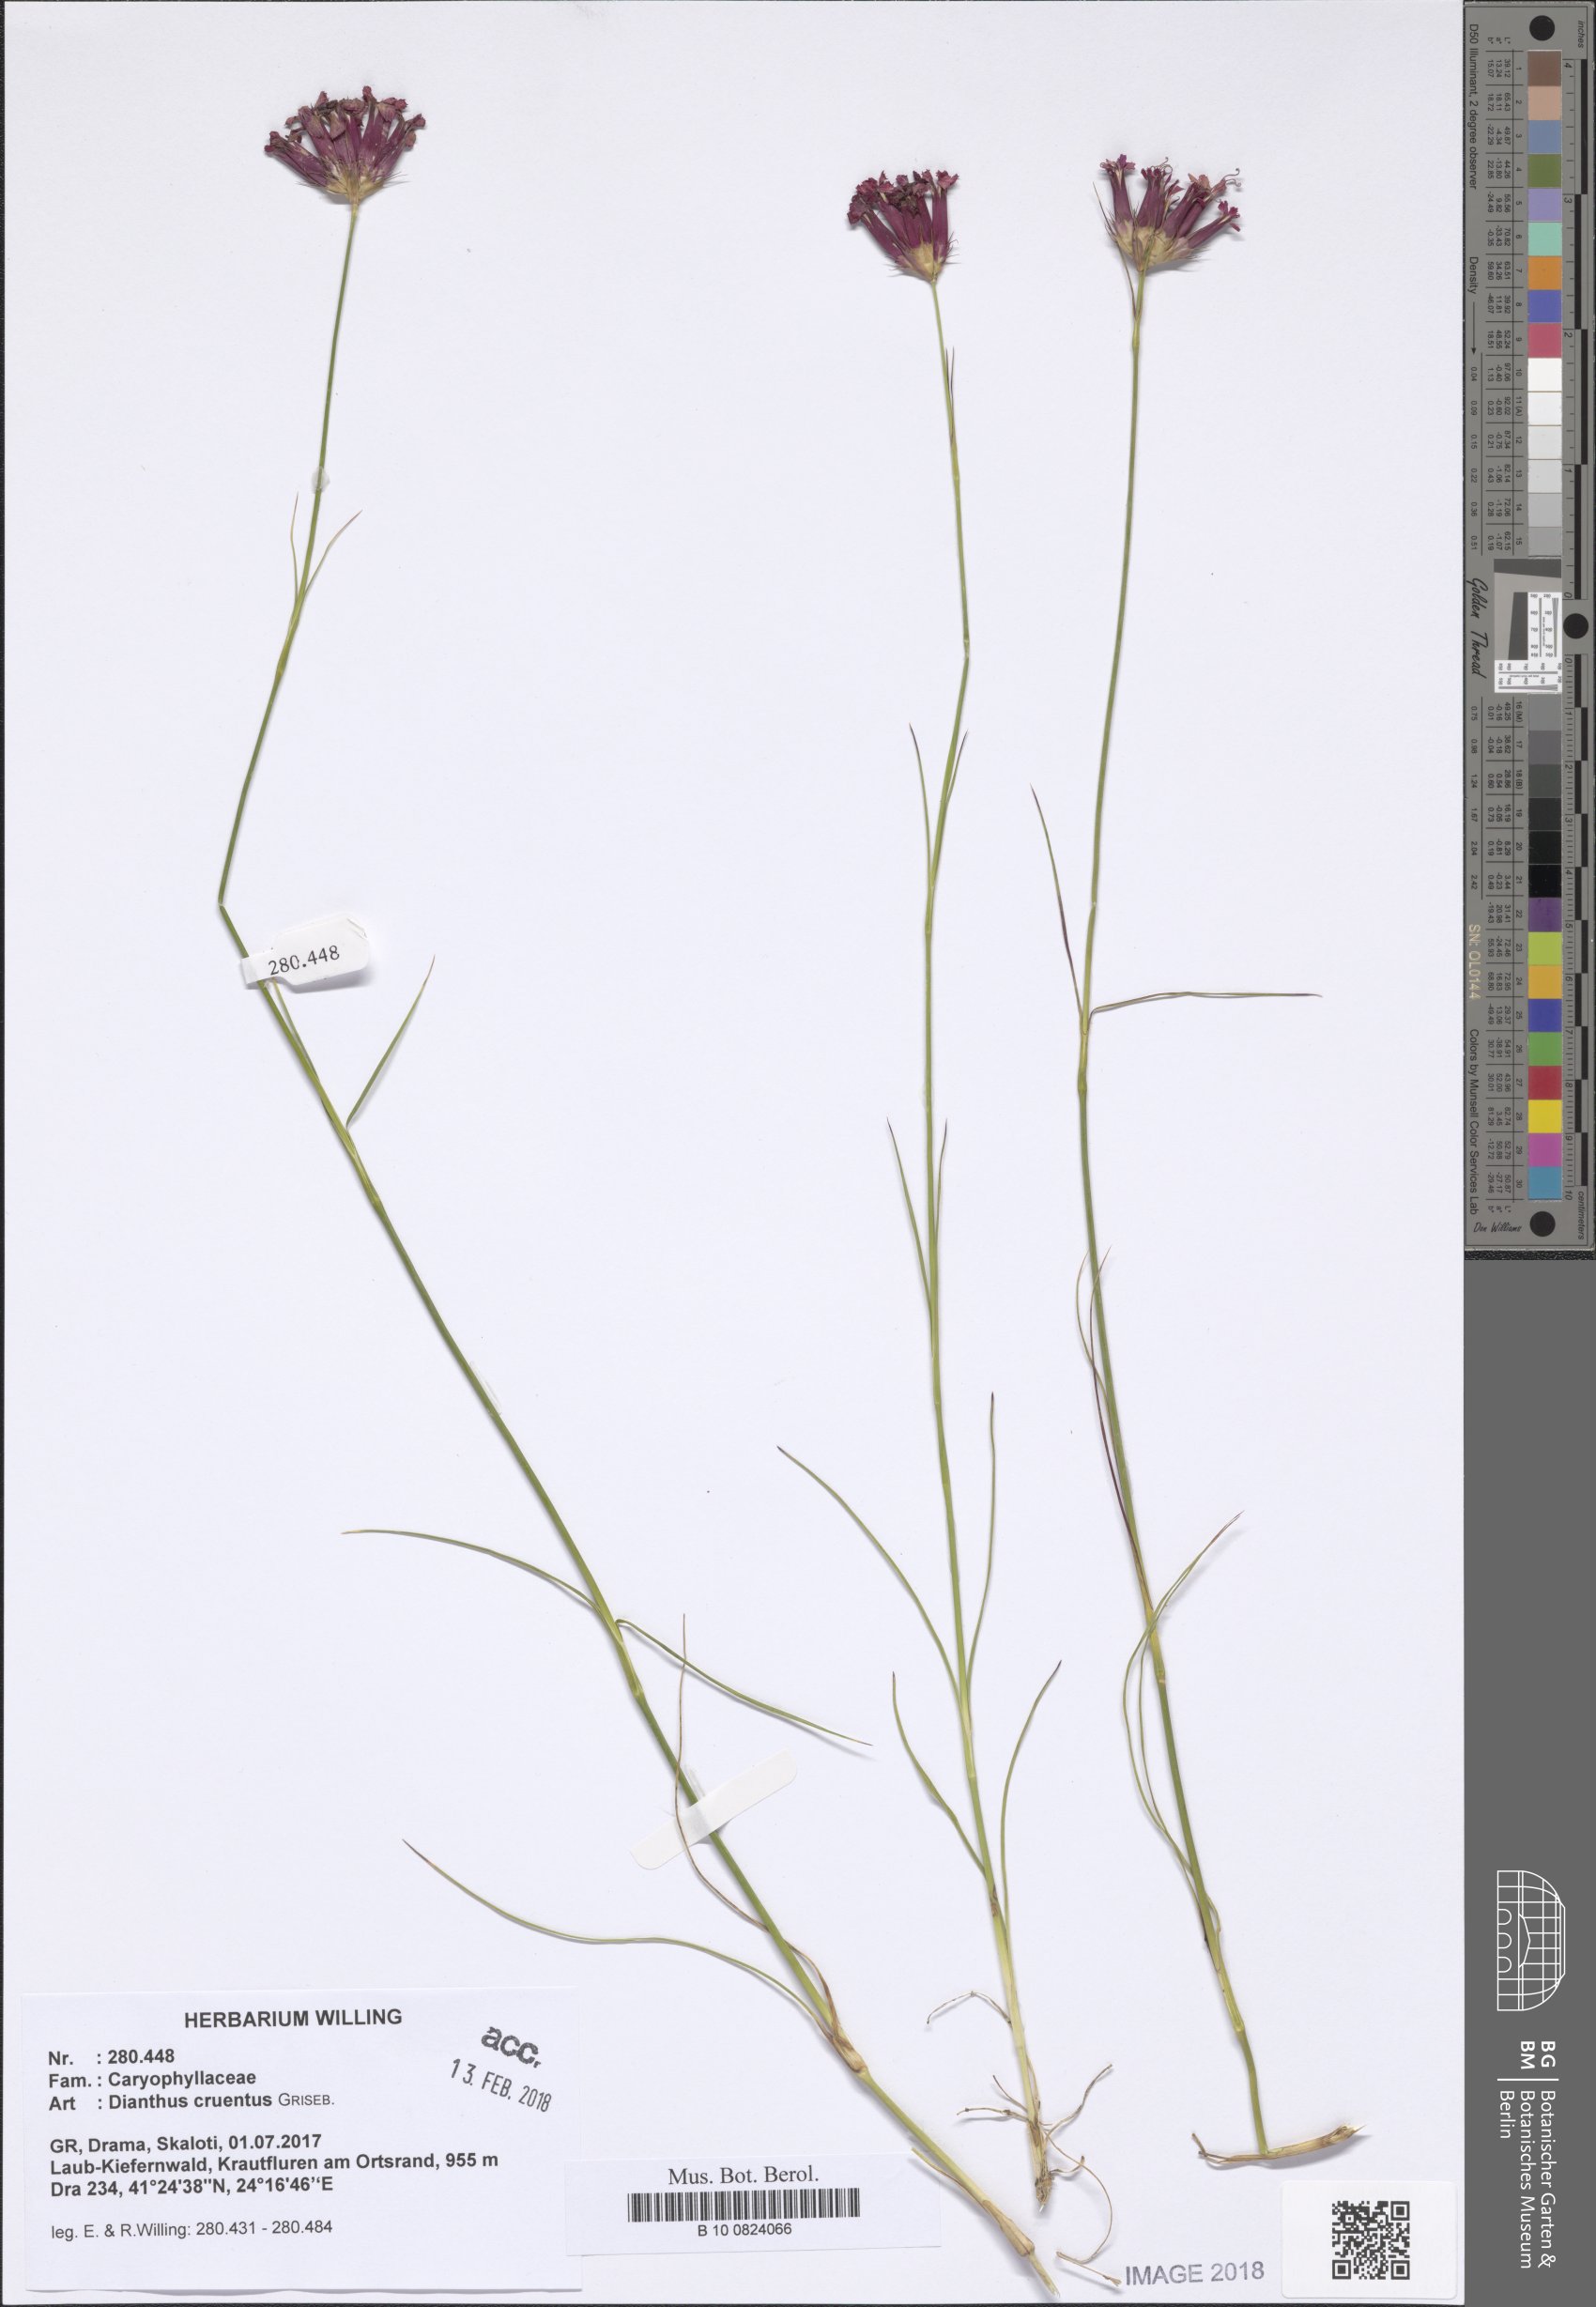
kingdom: Plantae
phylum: Tracheophyta
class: Magnoliopsida
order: Caryophyllales
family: Caryophyllaceae
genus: Dianthus
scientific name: Dianthus cruentus
